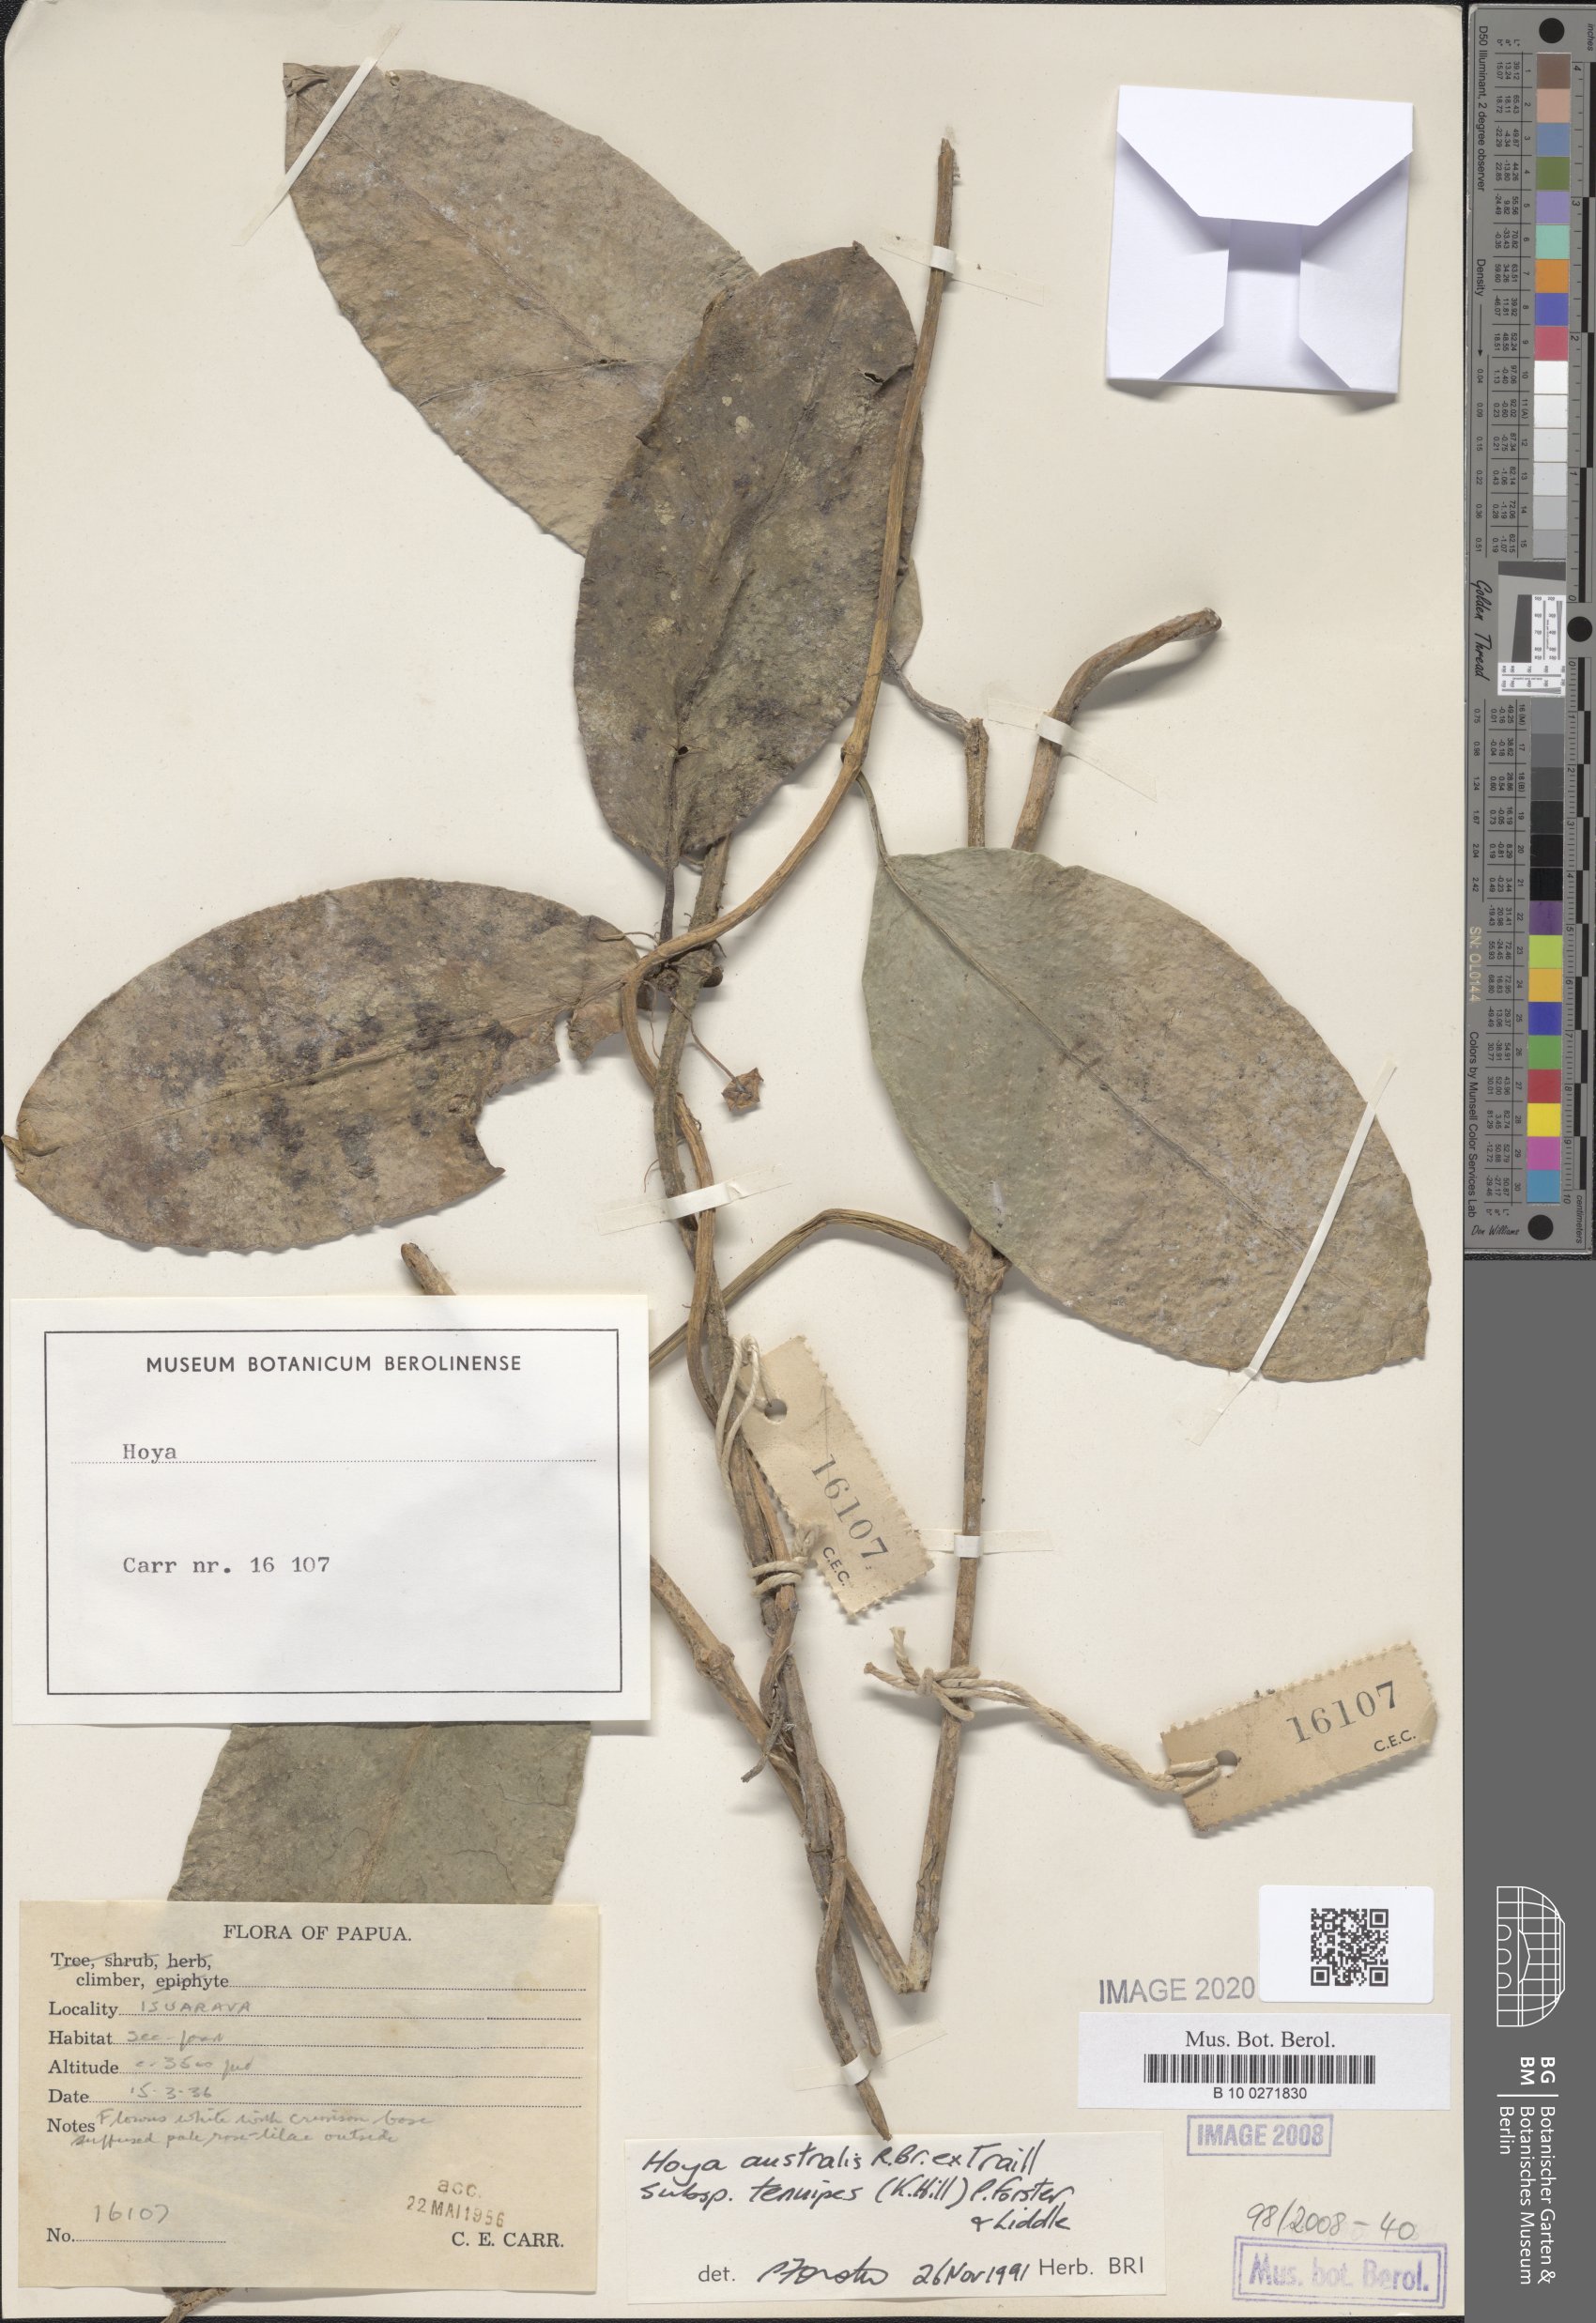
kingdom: Plantae
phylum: Tracheophyta
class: Magnoliopsida
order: Gentianales
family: Apocynaceae
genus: Hoya
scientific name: Hoya australis
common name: Wax flower
